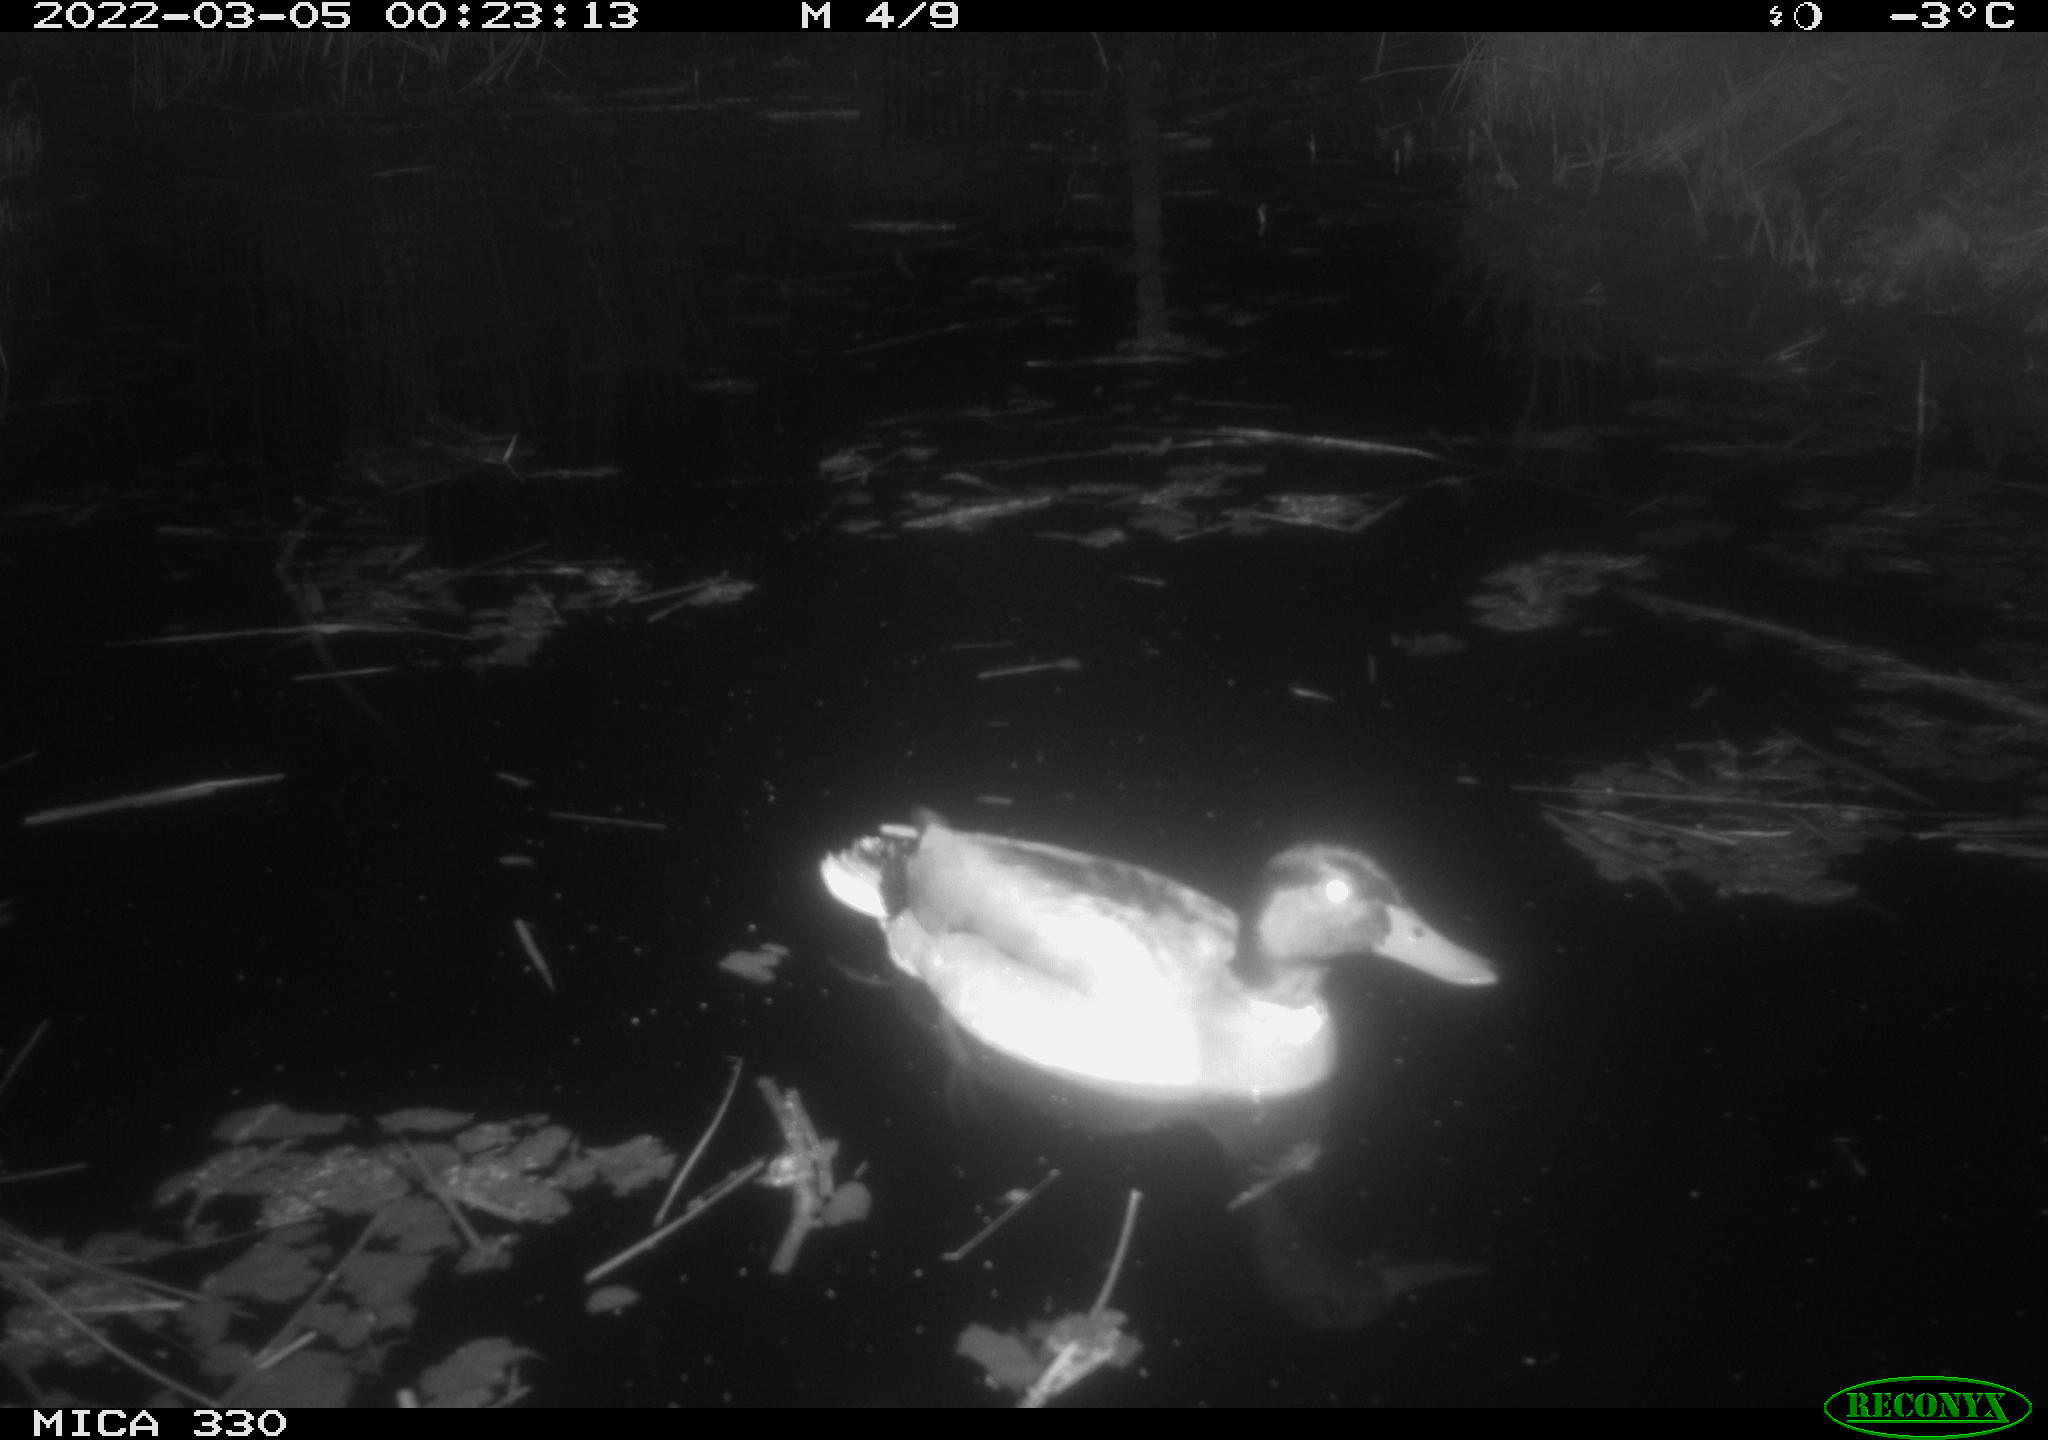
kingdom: Animalia
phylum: Chordata
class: Aves
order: Anseriformes
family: Anatidae
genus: Anas
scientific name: Anas platyrhynchos
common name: Mallard
